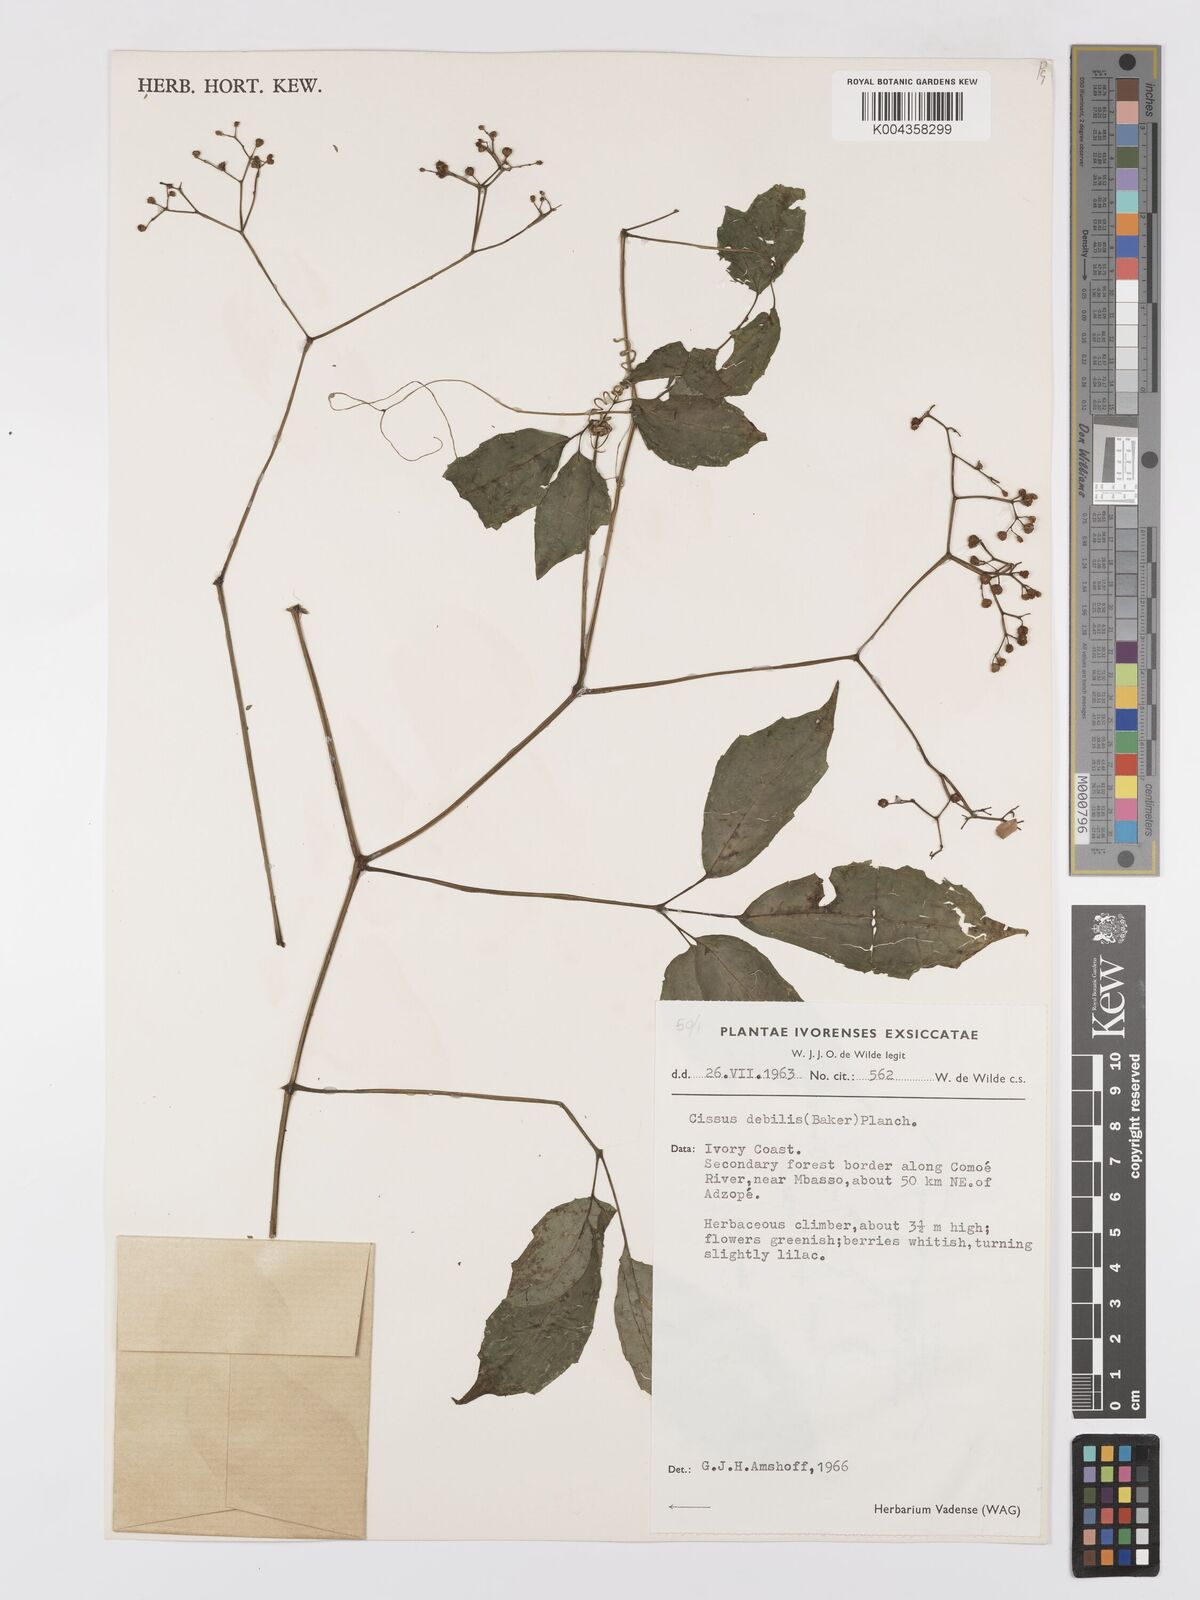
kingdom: Plantae
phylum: Tracheophyta
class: Magnoliopsida
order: Vitales
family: Vitaceae
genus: Afrocayratia
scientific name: Afrocayratia debilis
